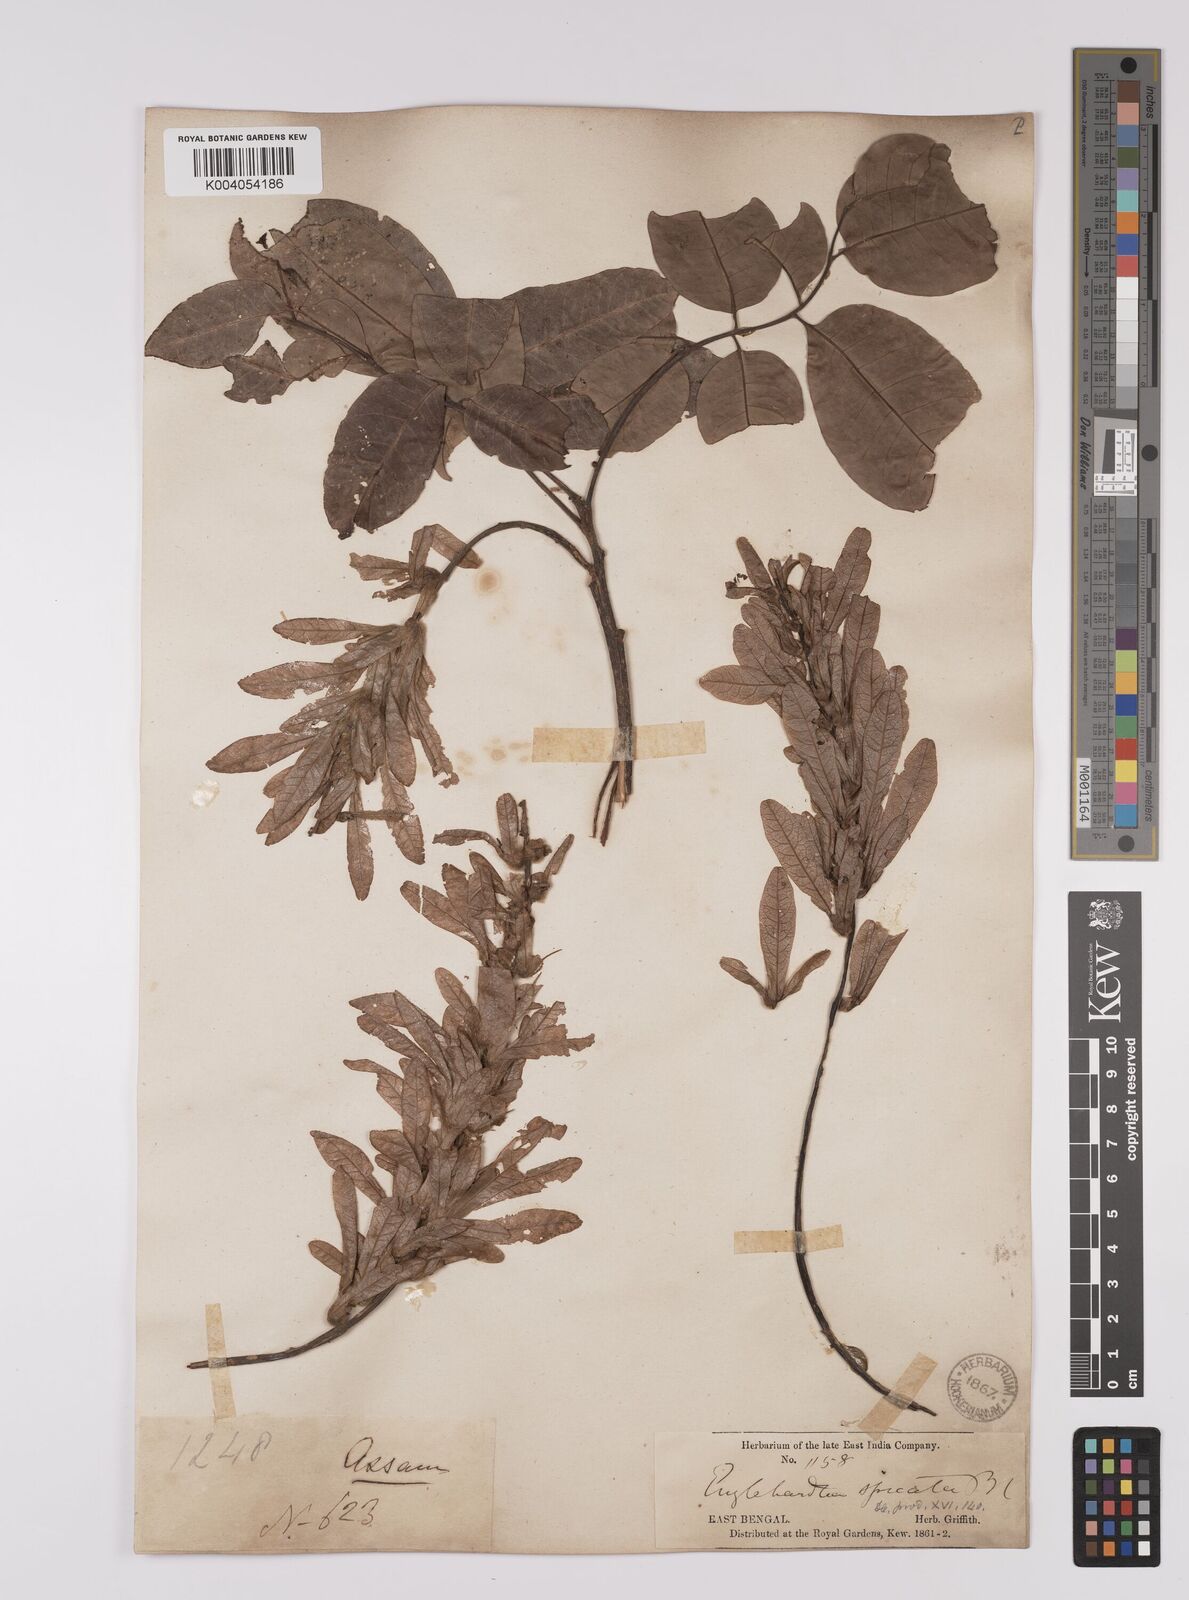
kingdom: Plantae
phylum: Tracheophyta
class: Magnoliopsida
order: Fagales
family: Juglandaceae
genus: Engelhardia
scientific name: Engelhardia spicata
